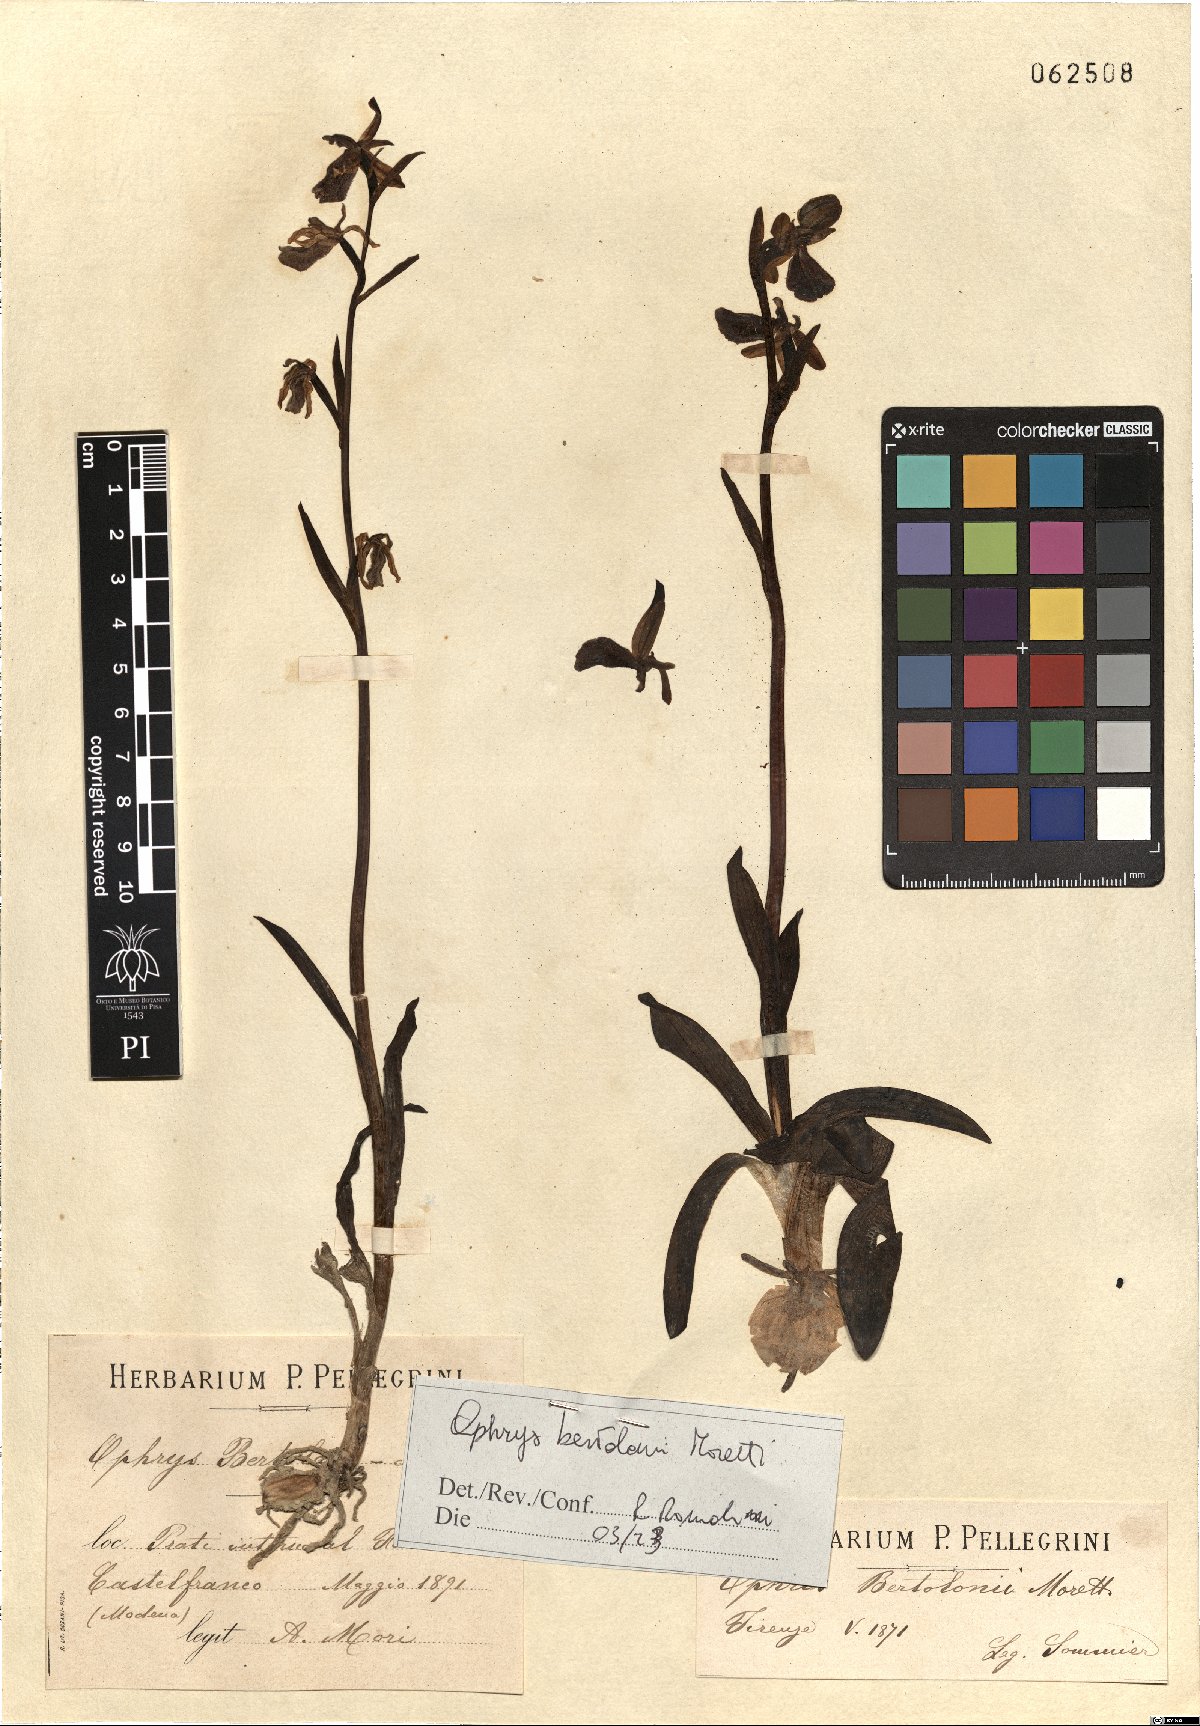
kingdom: Plantae
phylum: Tracheophyta
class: Liliopsida
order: Asparagales
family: Orchidaceae
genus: Ophrys
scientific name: Ophrys bertolonii
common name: Bertoloni's bee orchid
